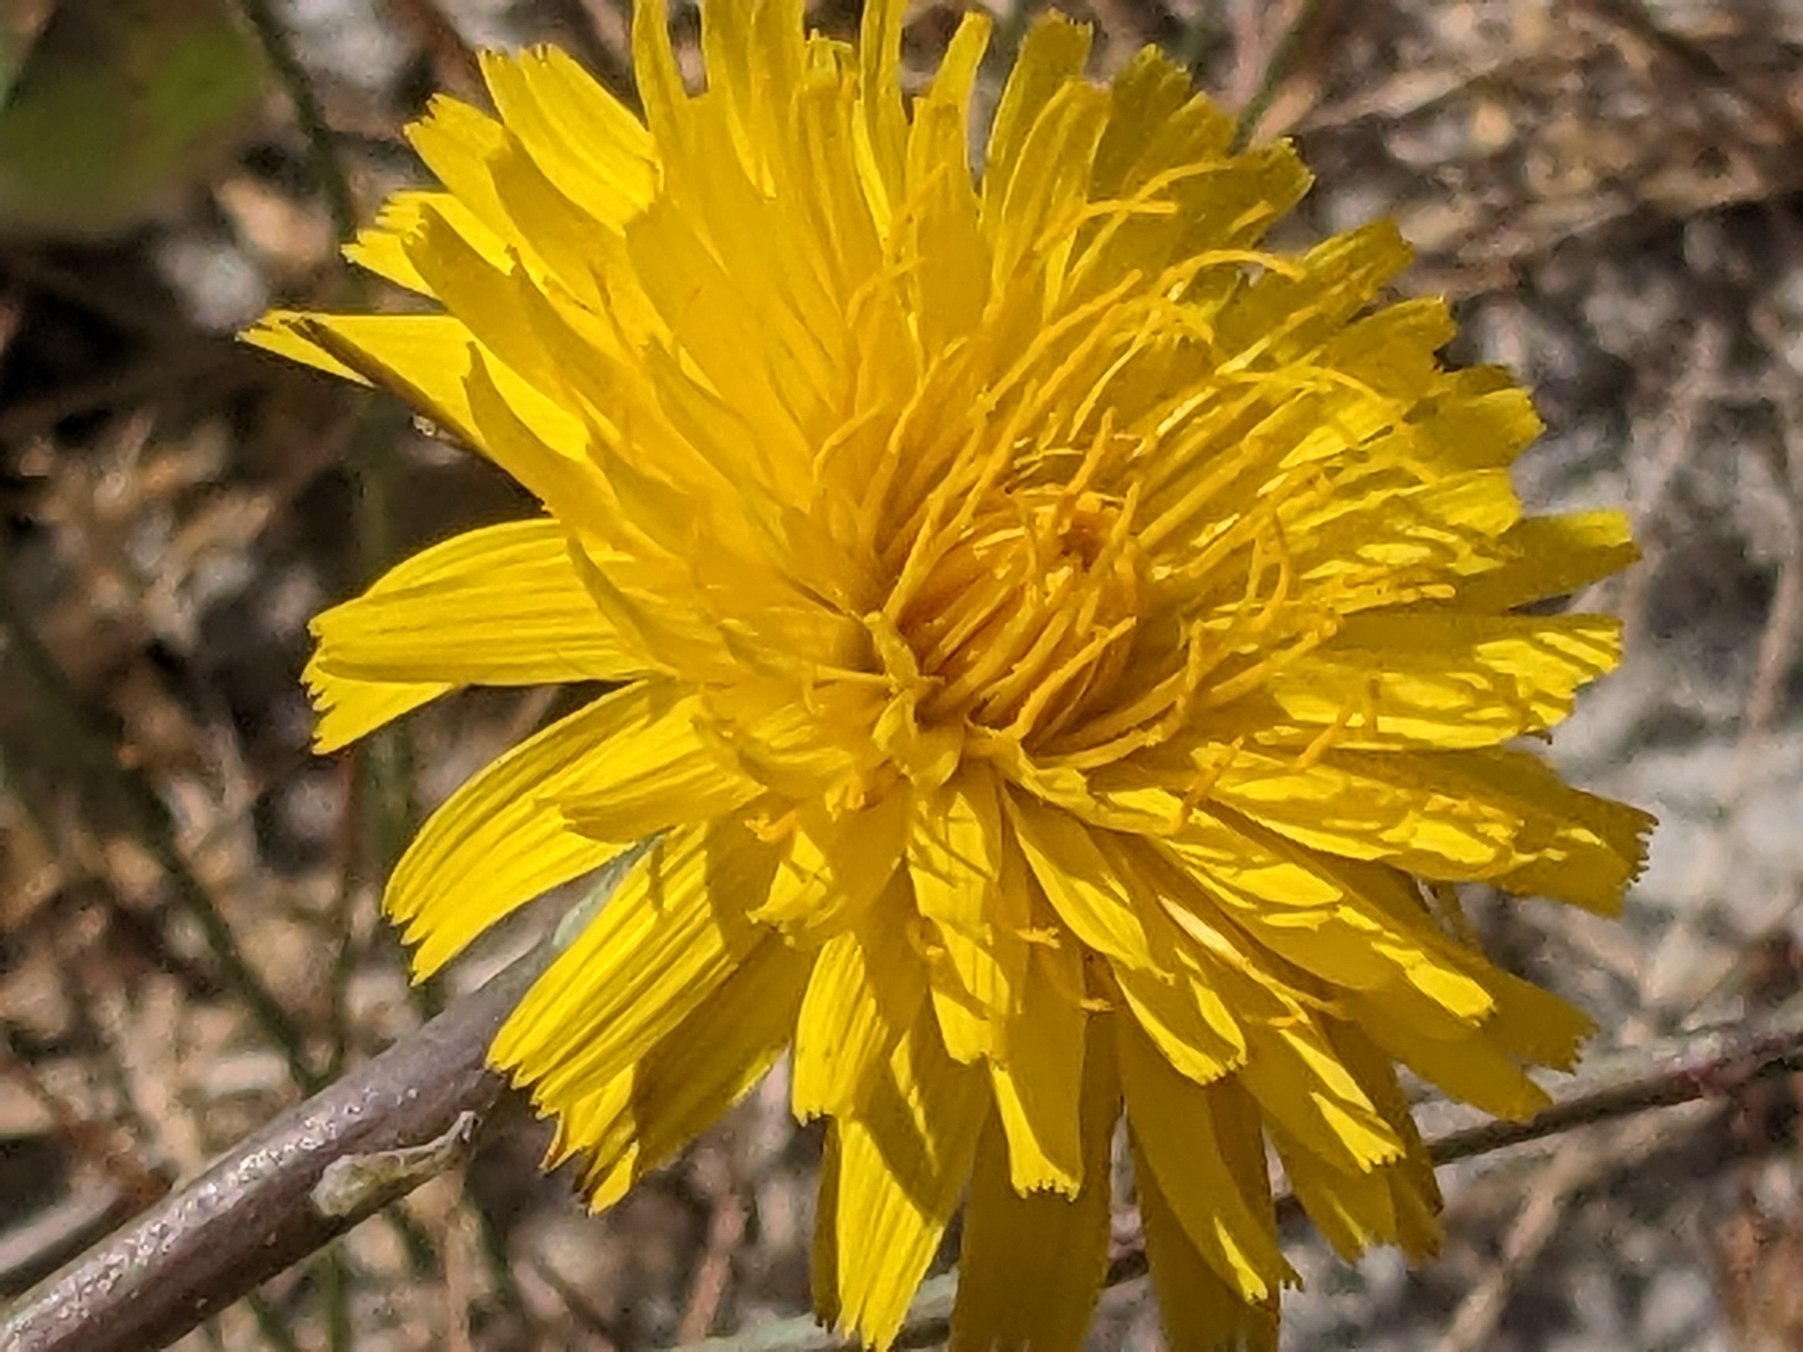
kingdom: Plantae
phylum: Tracheophyta
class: Magnoliopsida
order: Asterales
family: Asteraceae
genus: Hypochaeris
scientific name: Hypochaeris radicata
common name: Almindelig kongepen
